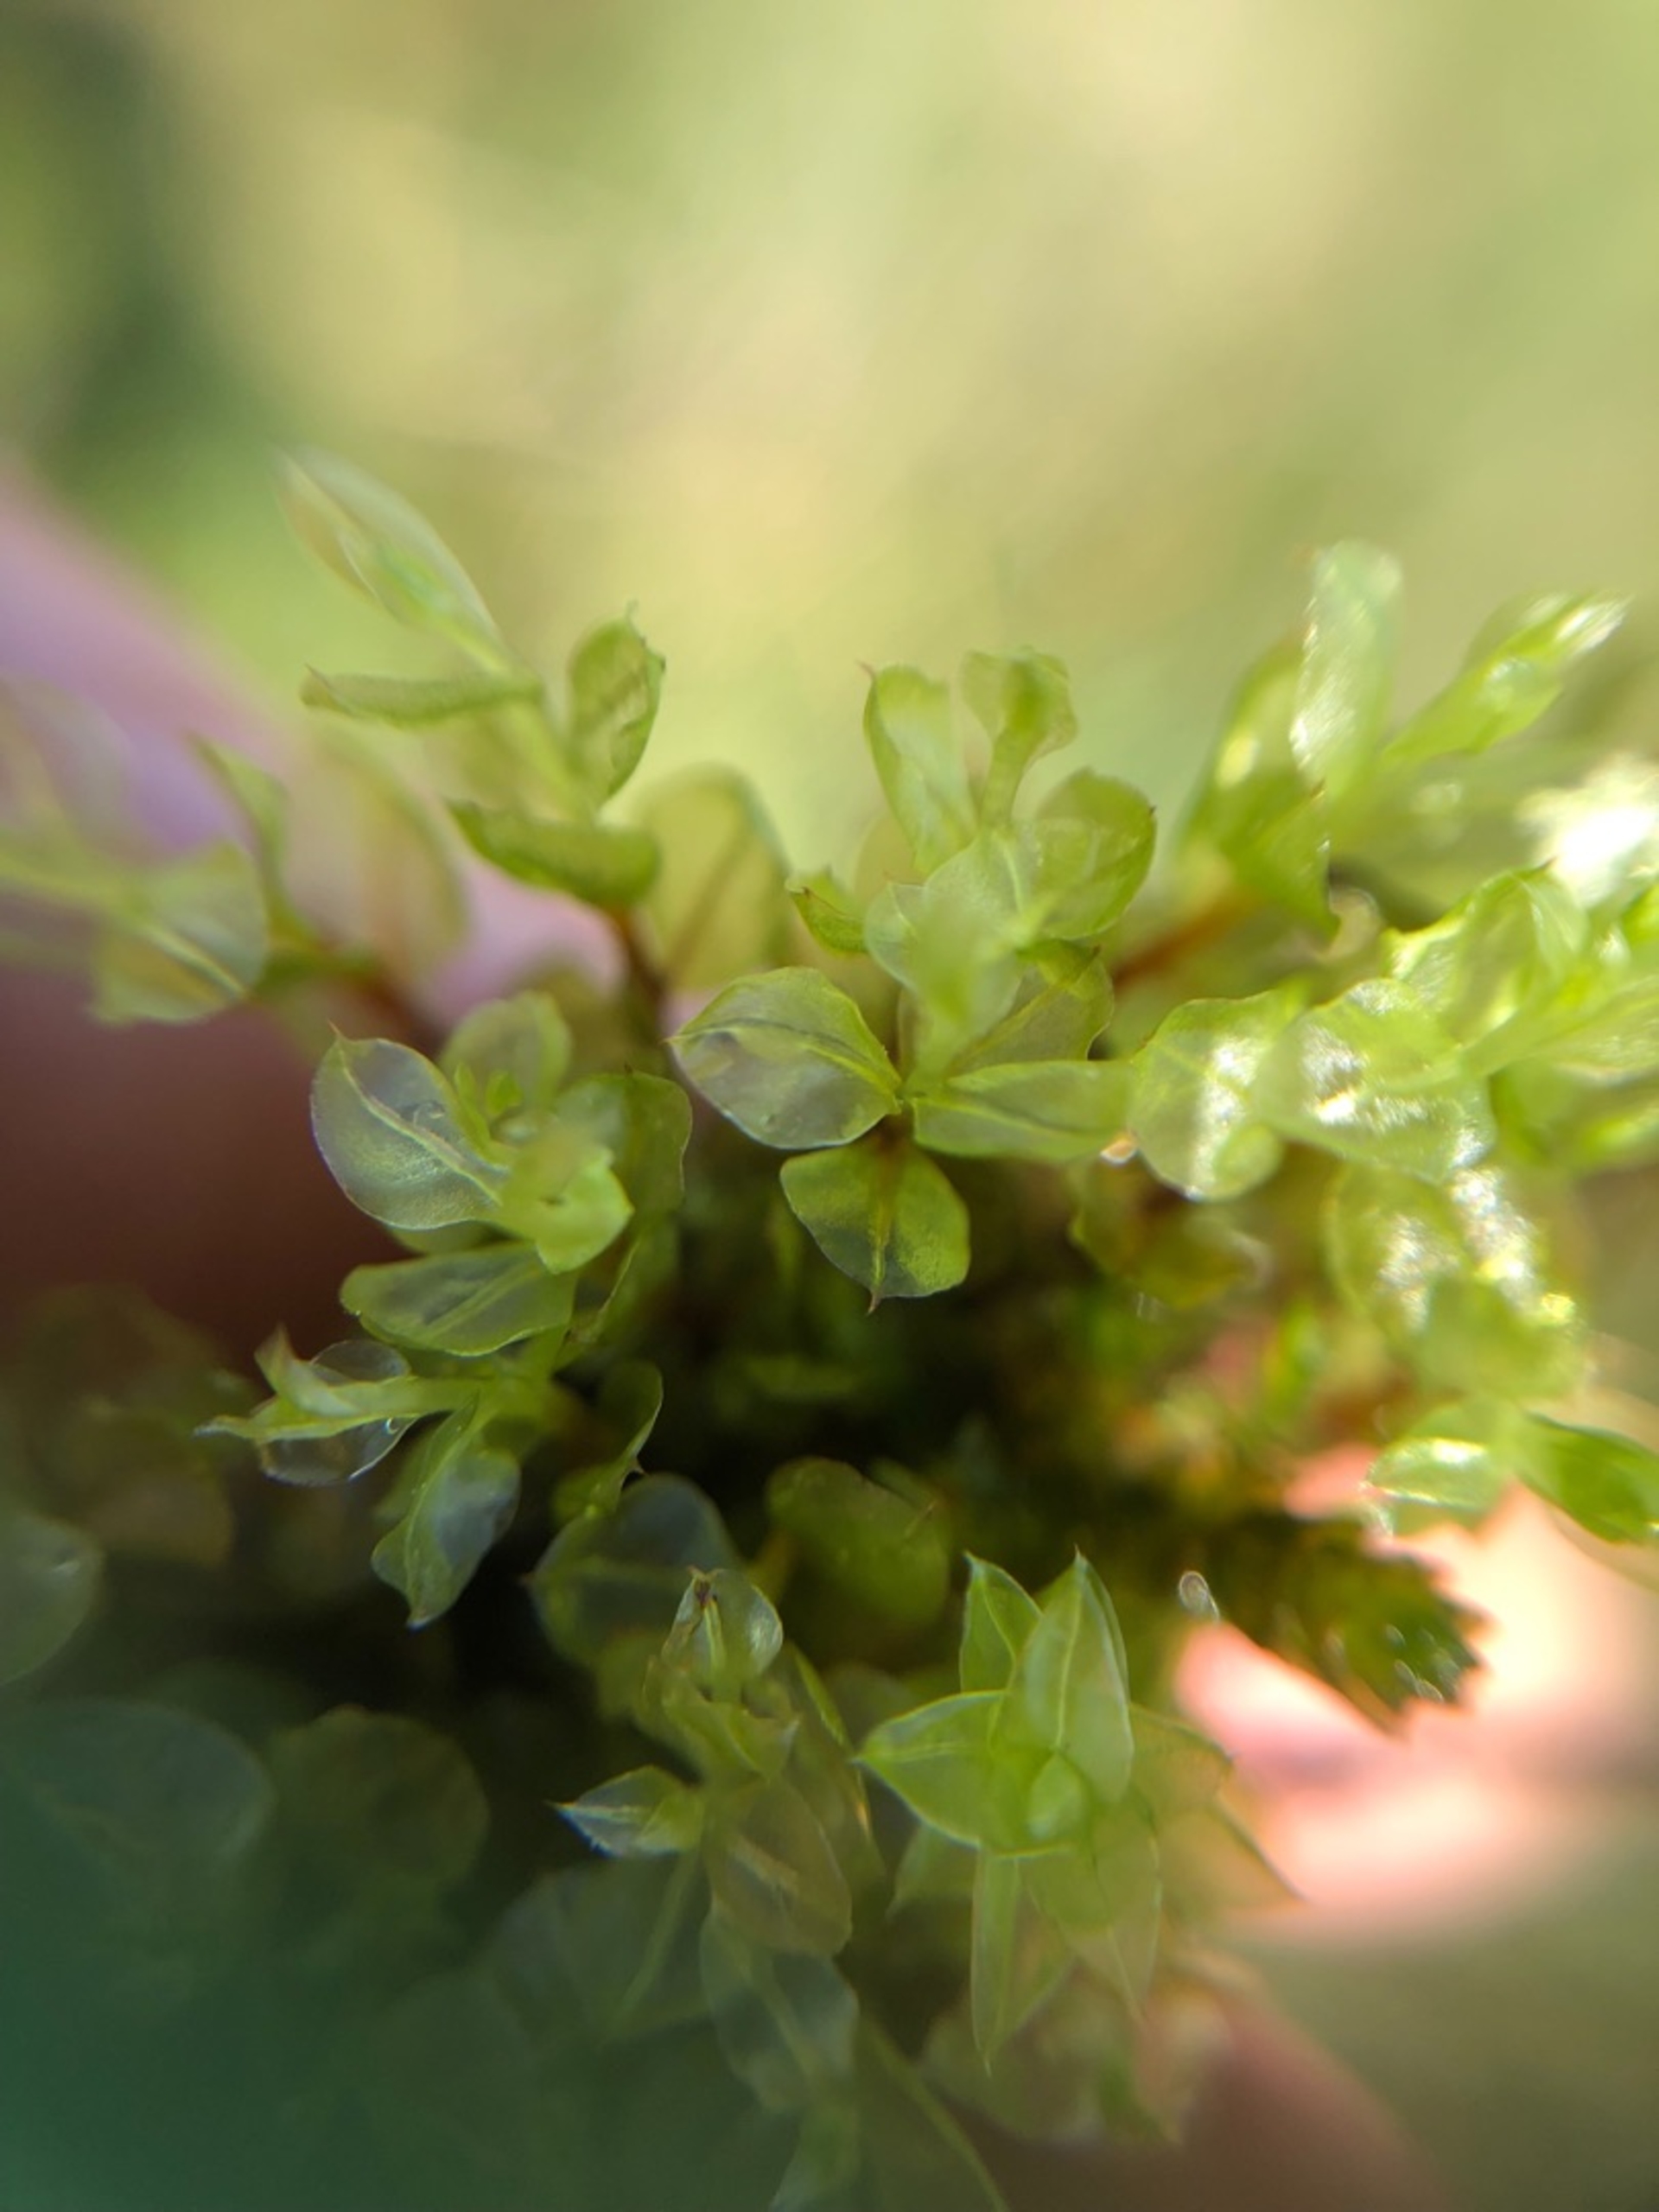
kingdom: Plantae
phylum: Bryophyta
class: Bryopsida
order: Bryales
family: Mniaceae
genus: Cinclidium
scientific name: Cinclidium stygium
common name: Kær-gittermos
